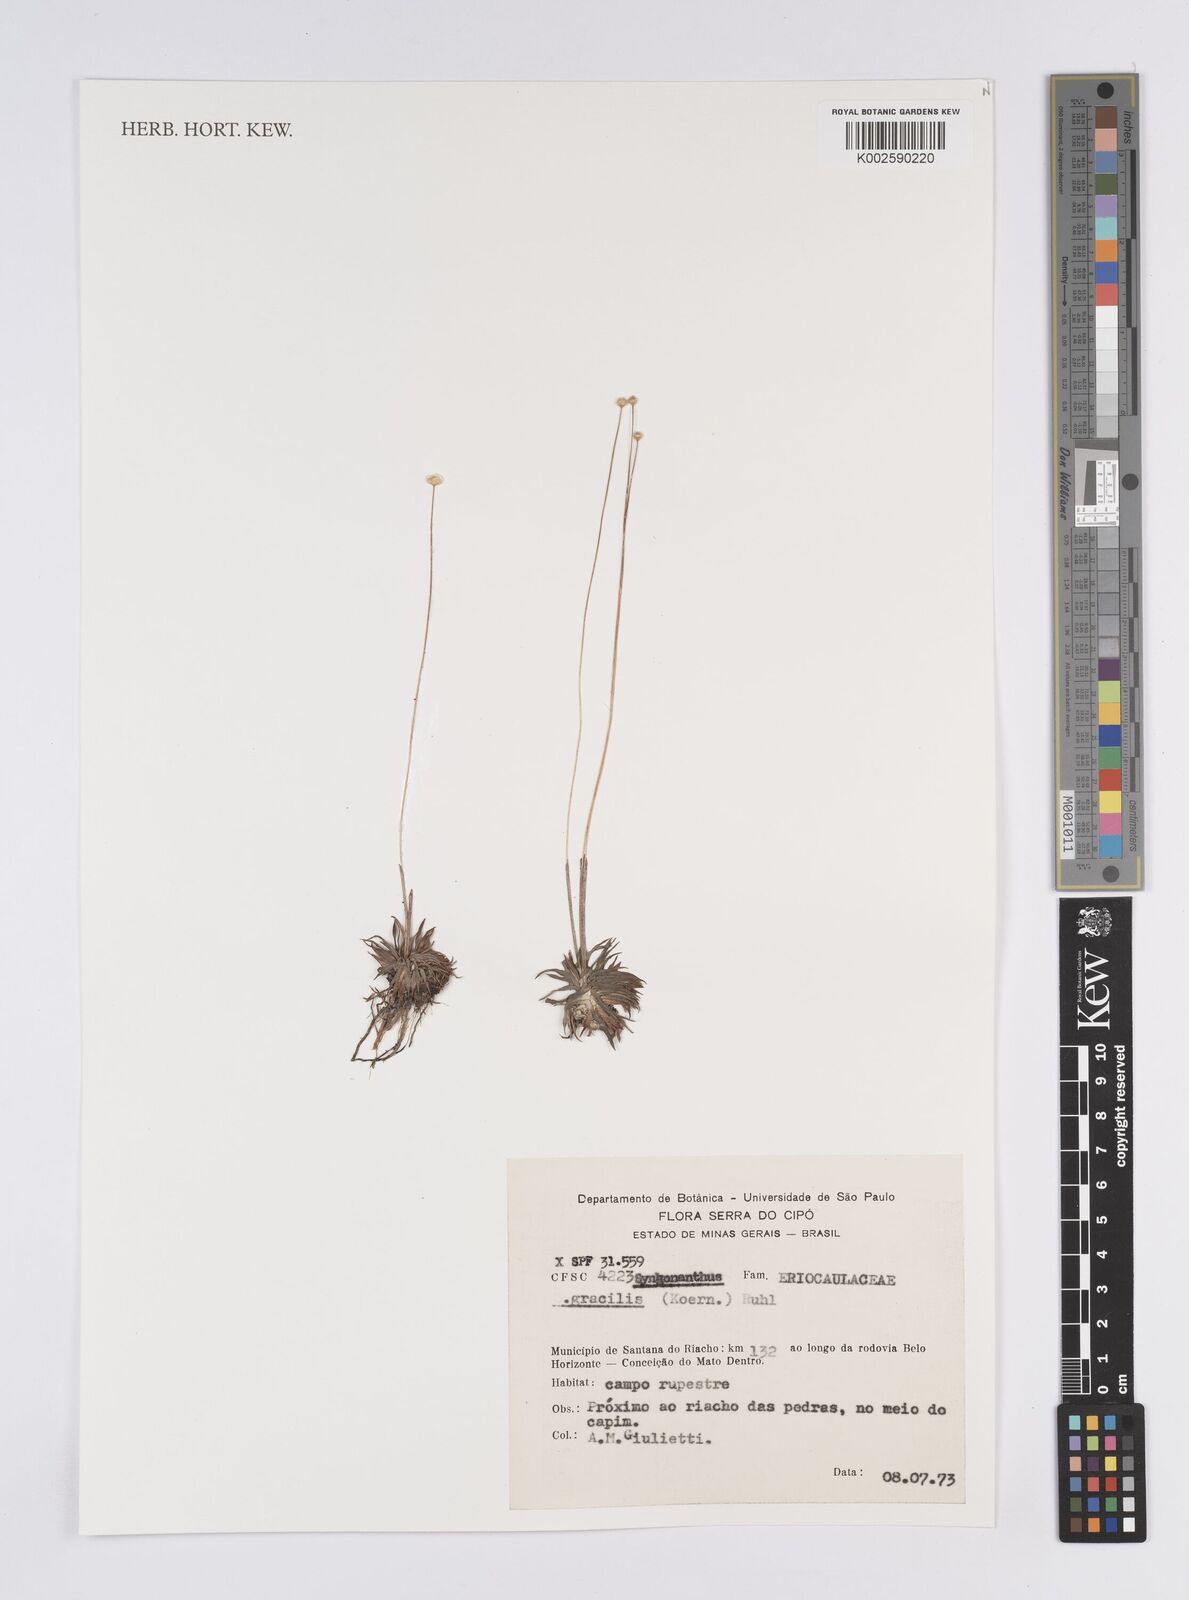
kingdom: Plantae
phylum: Tracheophyta
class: Liliopsida
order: Poales
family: Eriocaulaceae
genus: Syngonanthus
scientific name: Syngonanthus gracilis
